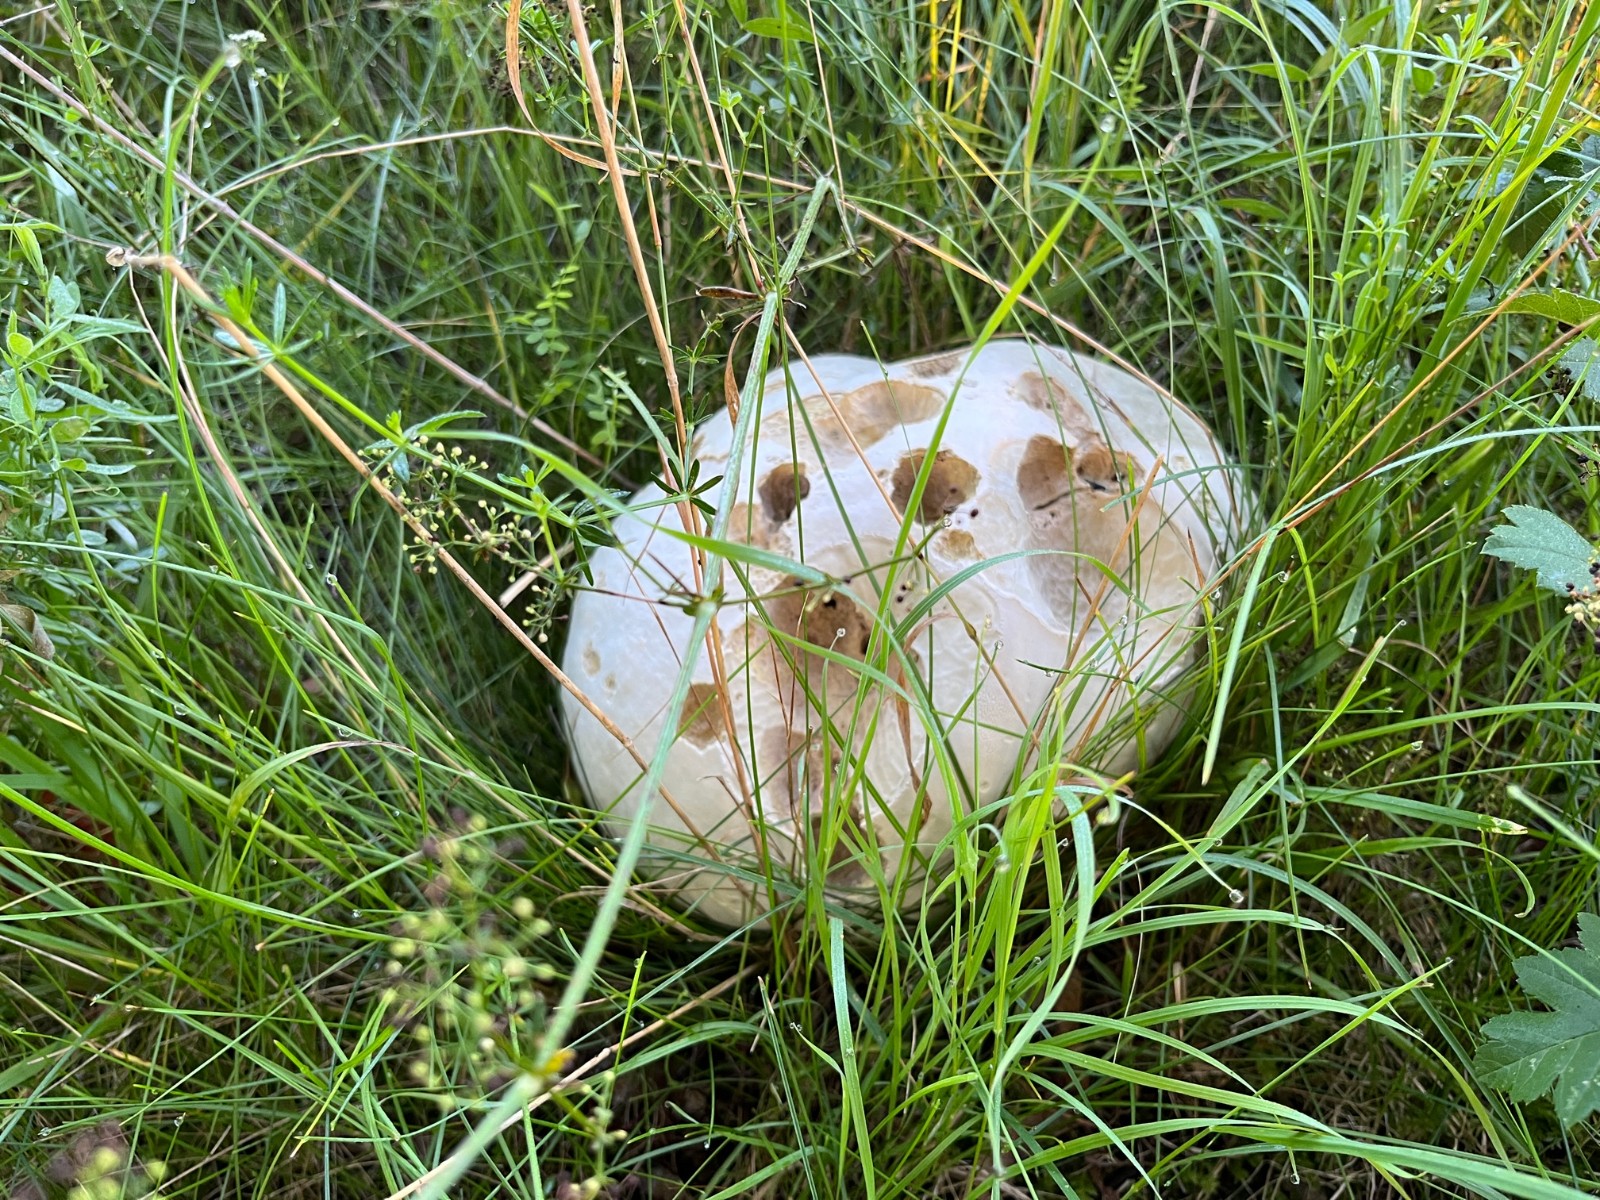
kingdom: Fungi
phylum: Basidiomycota
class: Agaricomycetes
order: Agaricales
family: Lycoperdaceae
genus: Calvatia
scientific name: Calvatia gigantea
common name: kæmpestøvbold
